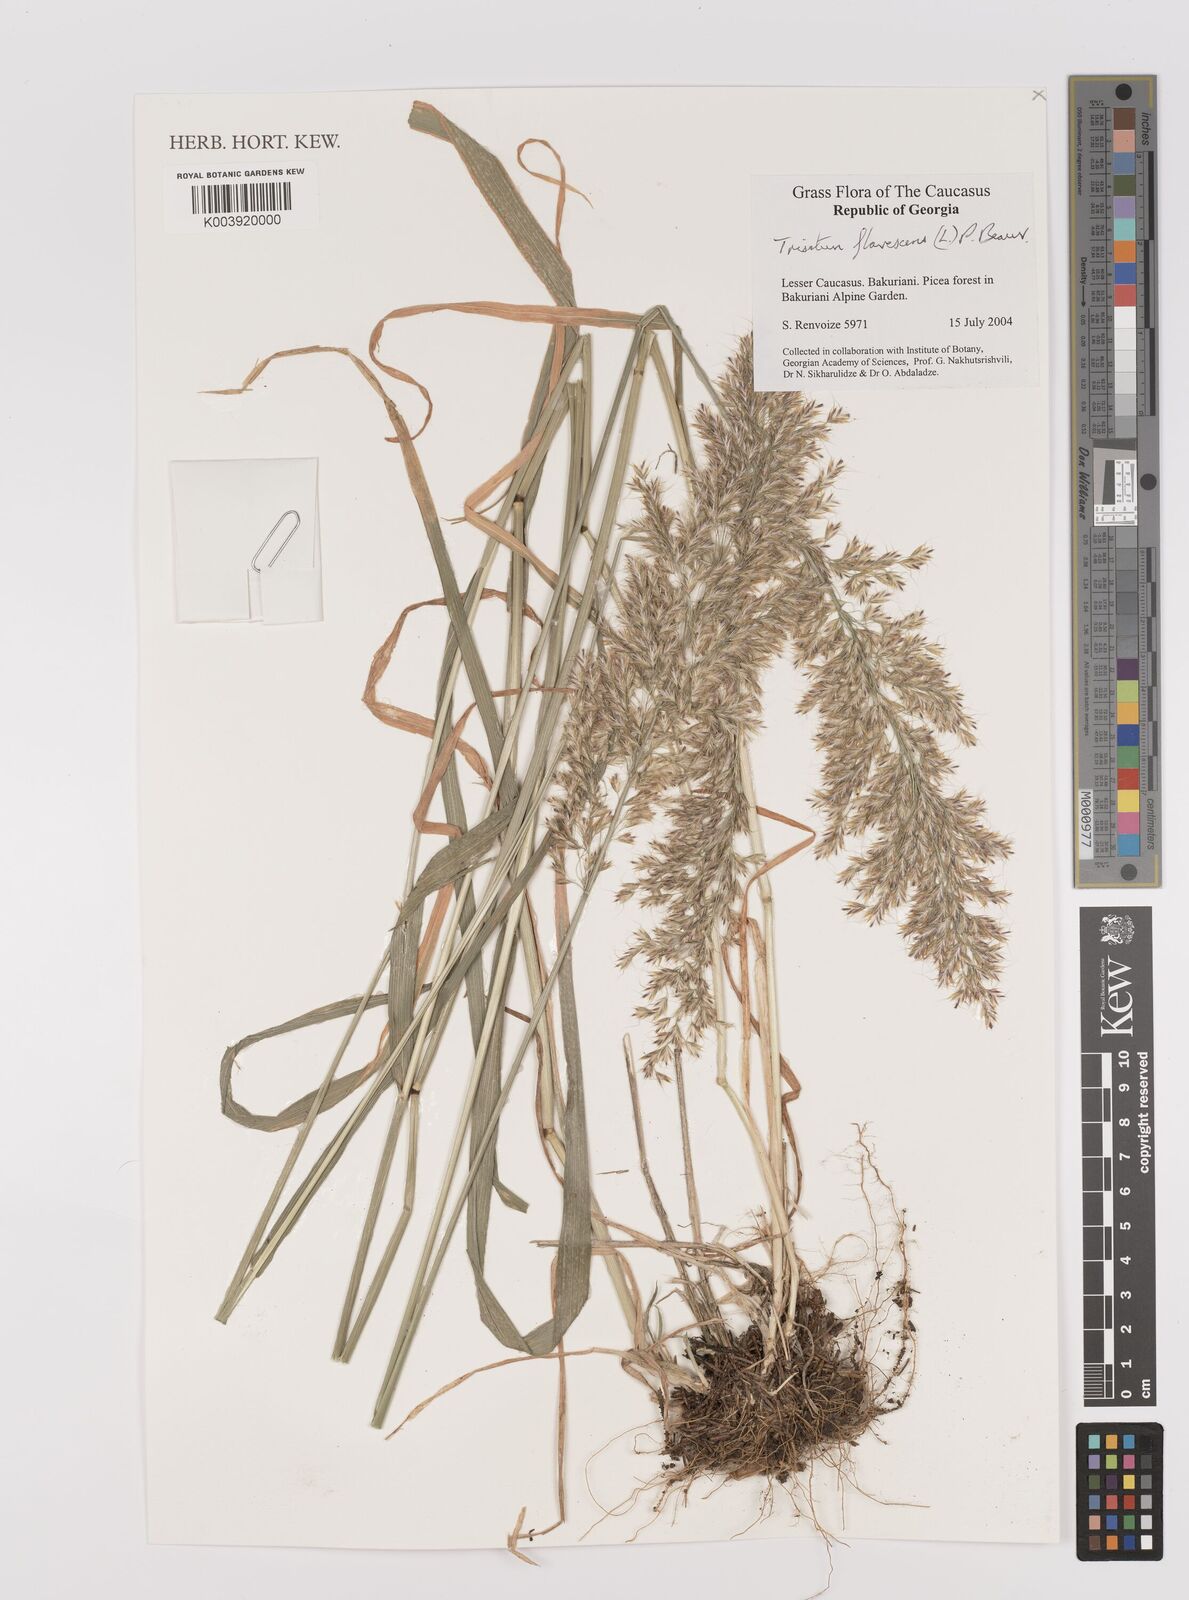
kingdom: Plantae
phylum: Tracheophyta
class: Liliopsida
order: Poales
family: Poaceae
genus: Trisetum
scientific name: Trisetum flavescens
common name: Yellow oat-grass
